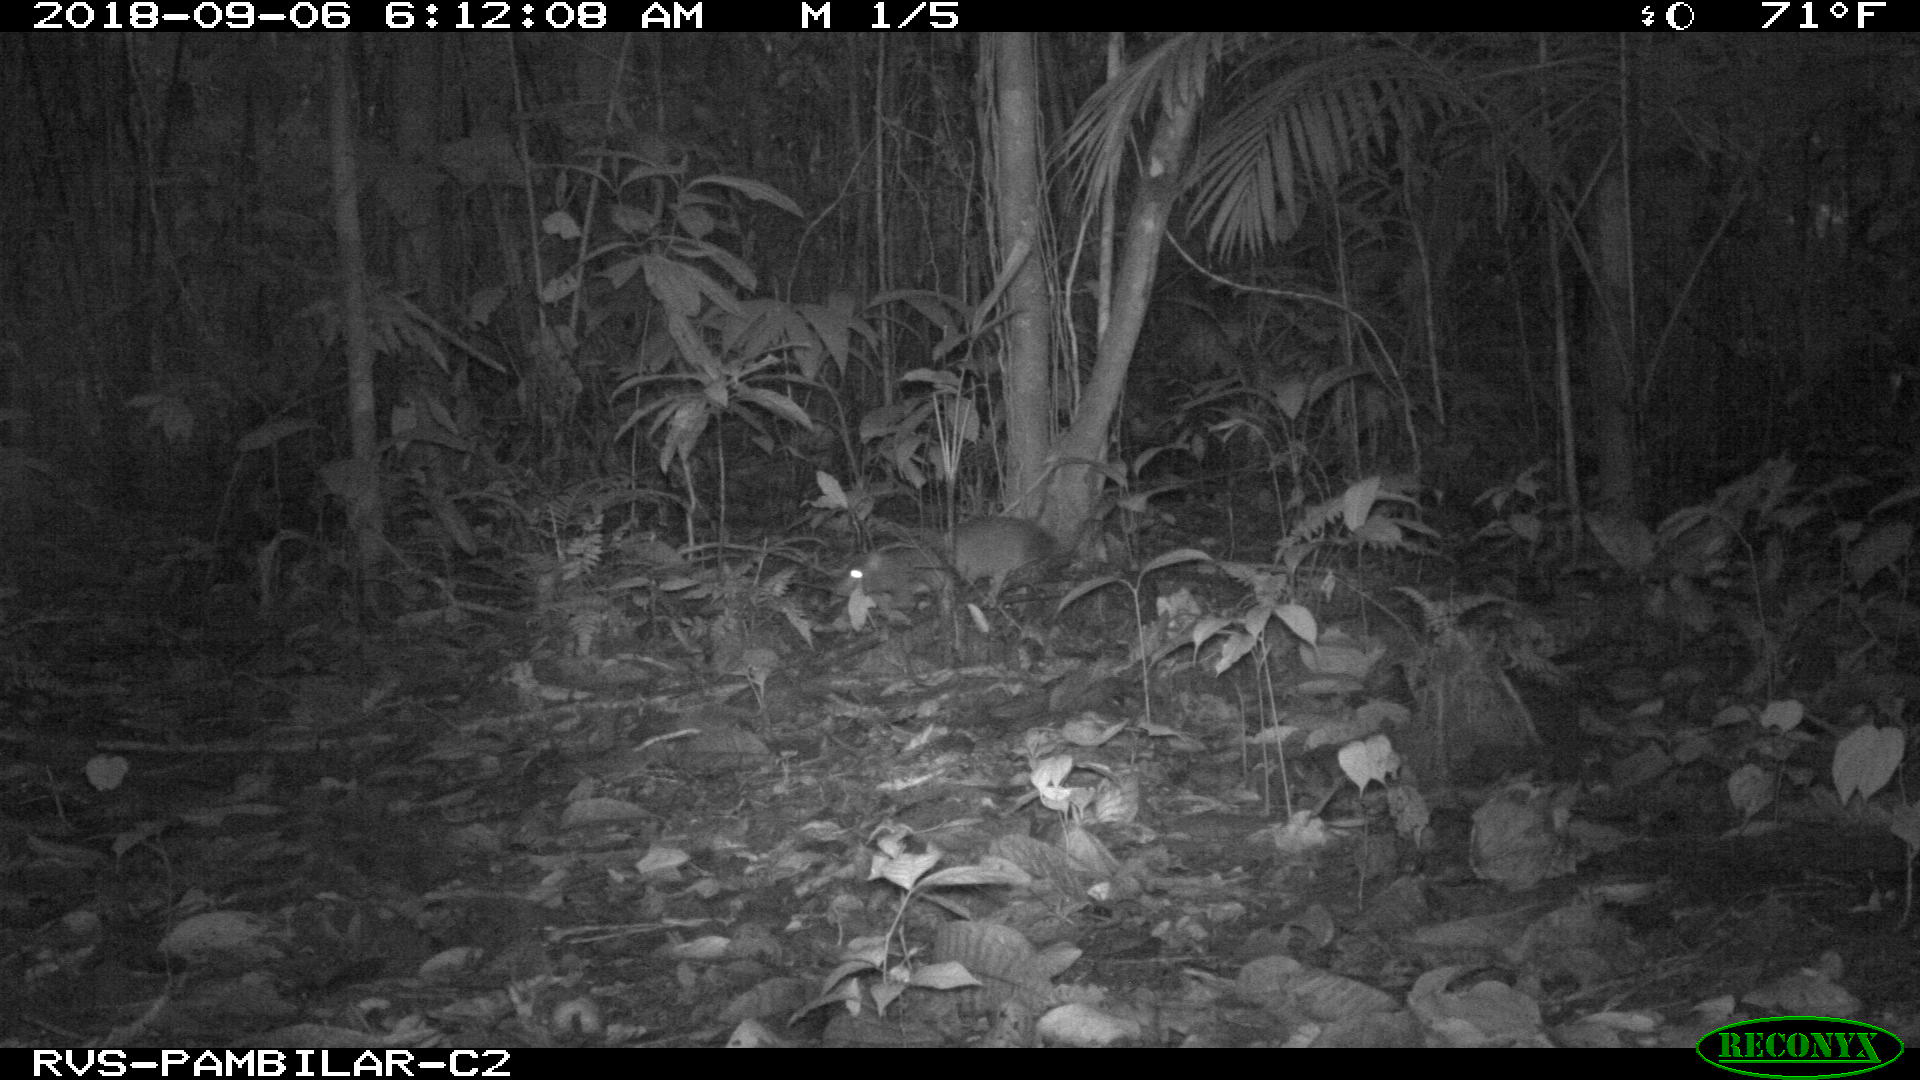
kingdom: Animalia
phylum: Chordata
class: Mammalia
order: Rodentia
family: Dasyproctidae
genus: Dasyprocta
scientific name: Dasyprocta punctata
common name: Central american agouti
